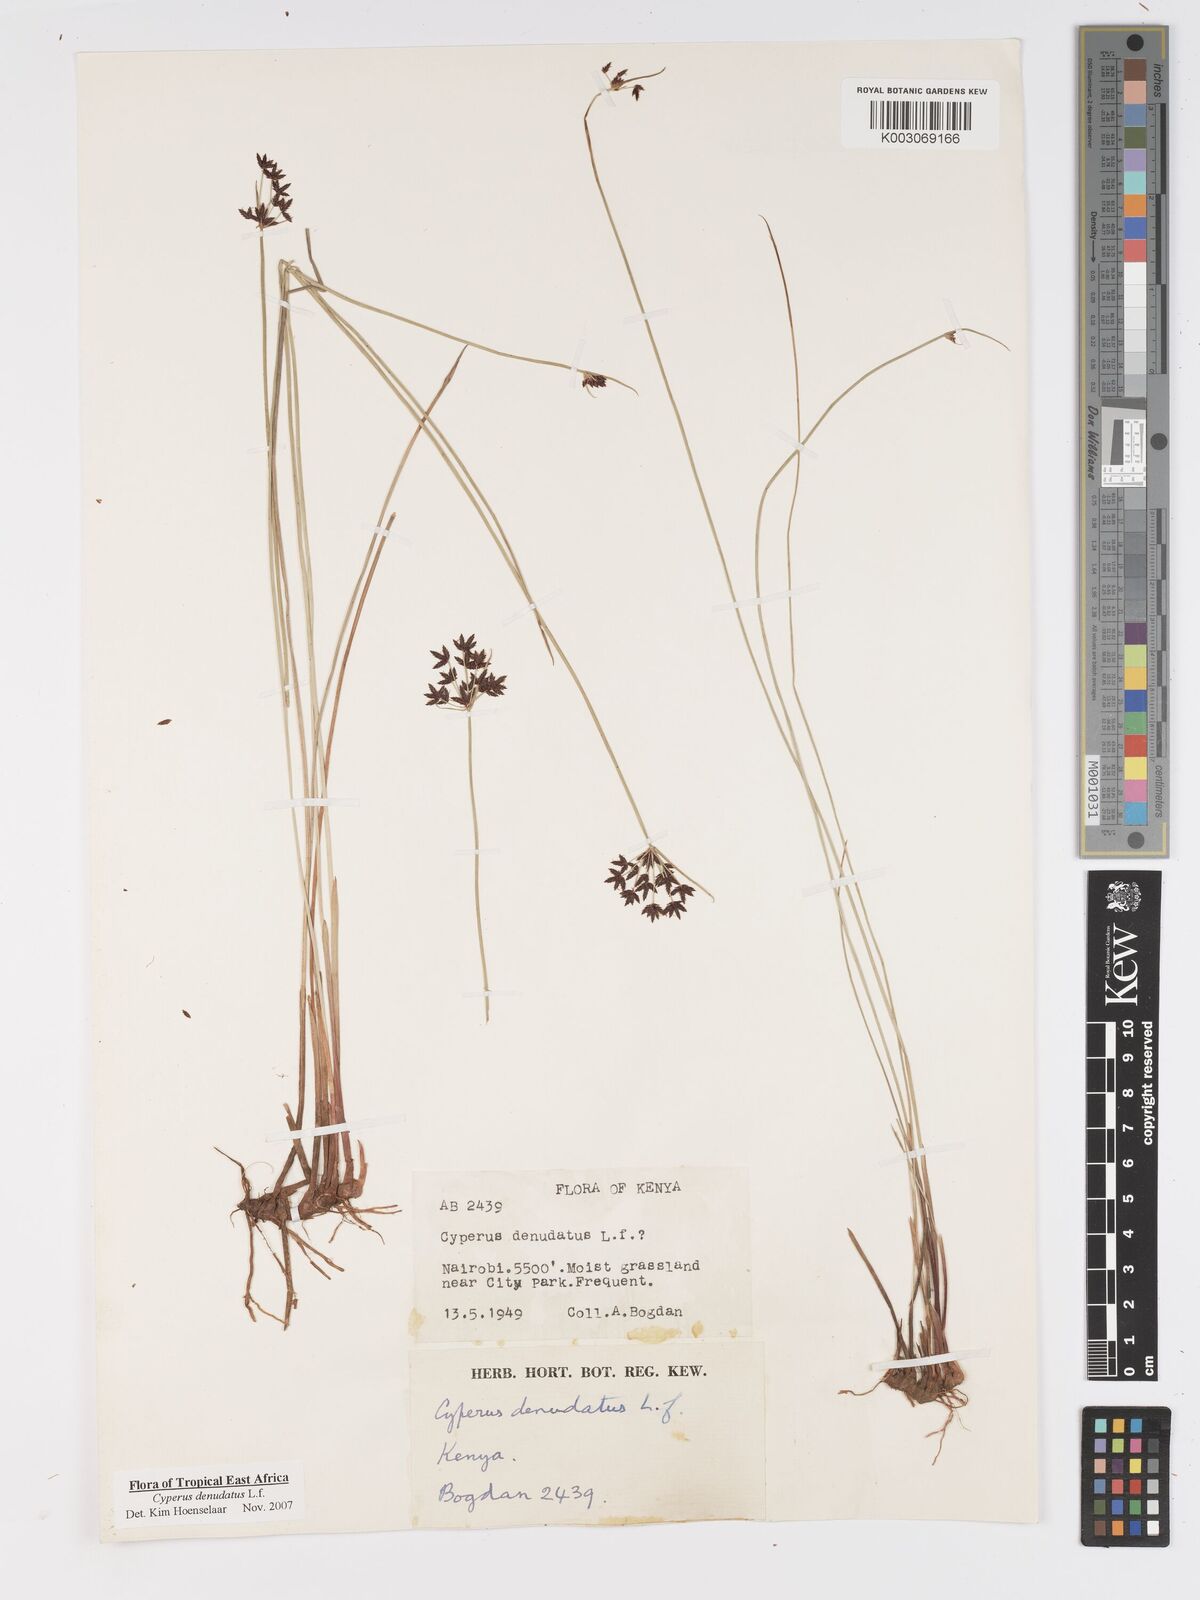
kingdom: Plantae
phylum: Tracheophyta
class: Liliopsida
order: Poales
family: Cyperaceae
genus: Cyperus
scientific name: Cyperus denudatus
